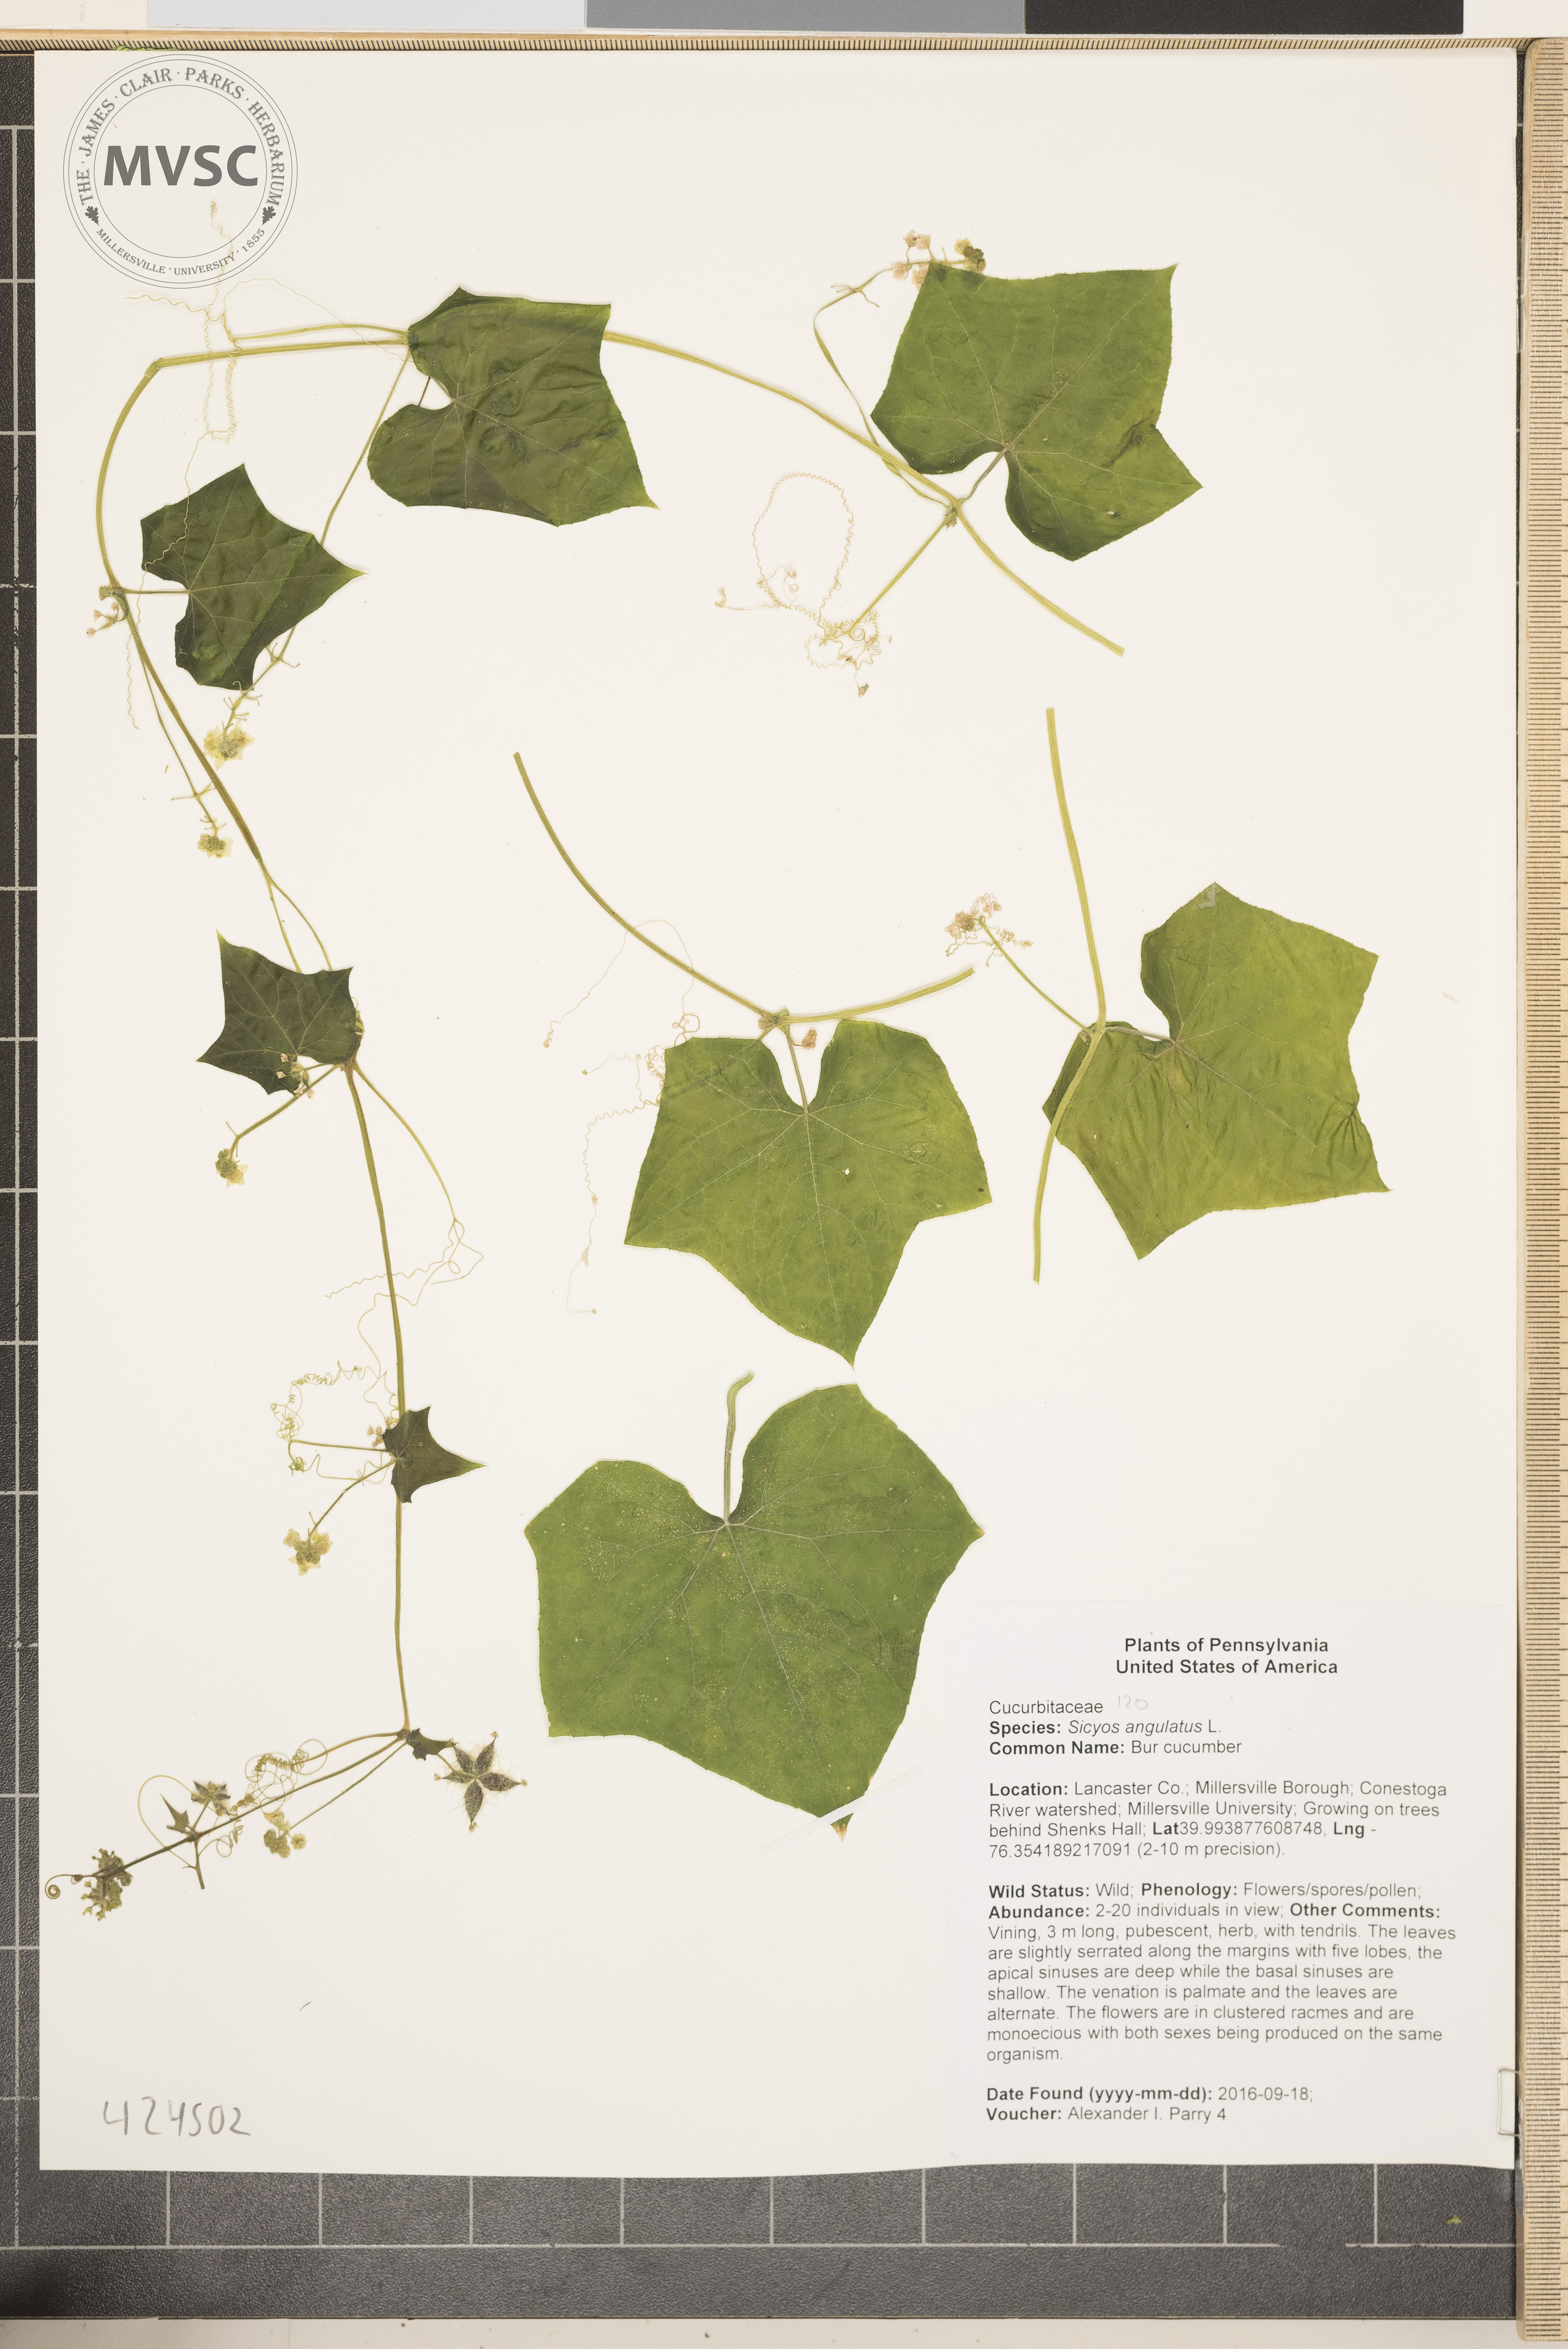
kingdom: Plantae
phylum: Tracheophyta
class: Magnoliopsida
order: Cucurbitales
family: Cucurbitaceae
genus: Sicyos
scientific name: Sicyos angulatus
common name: Bur cucumber
